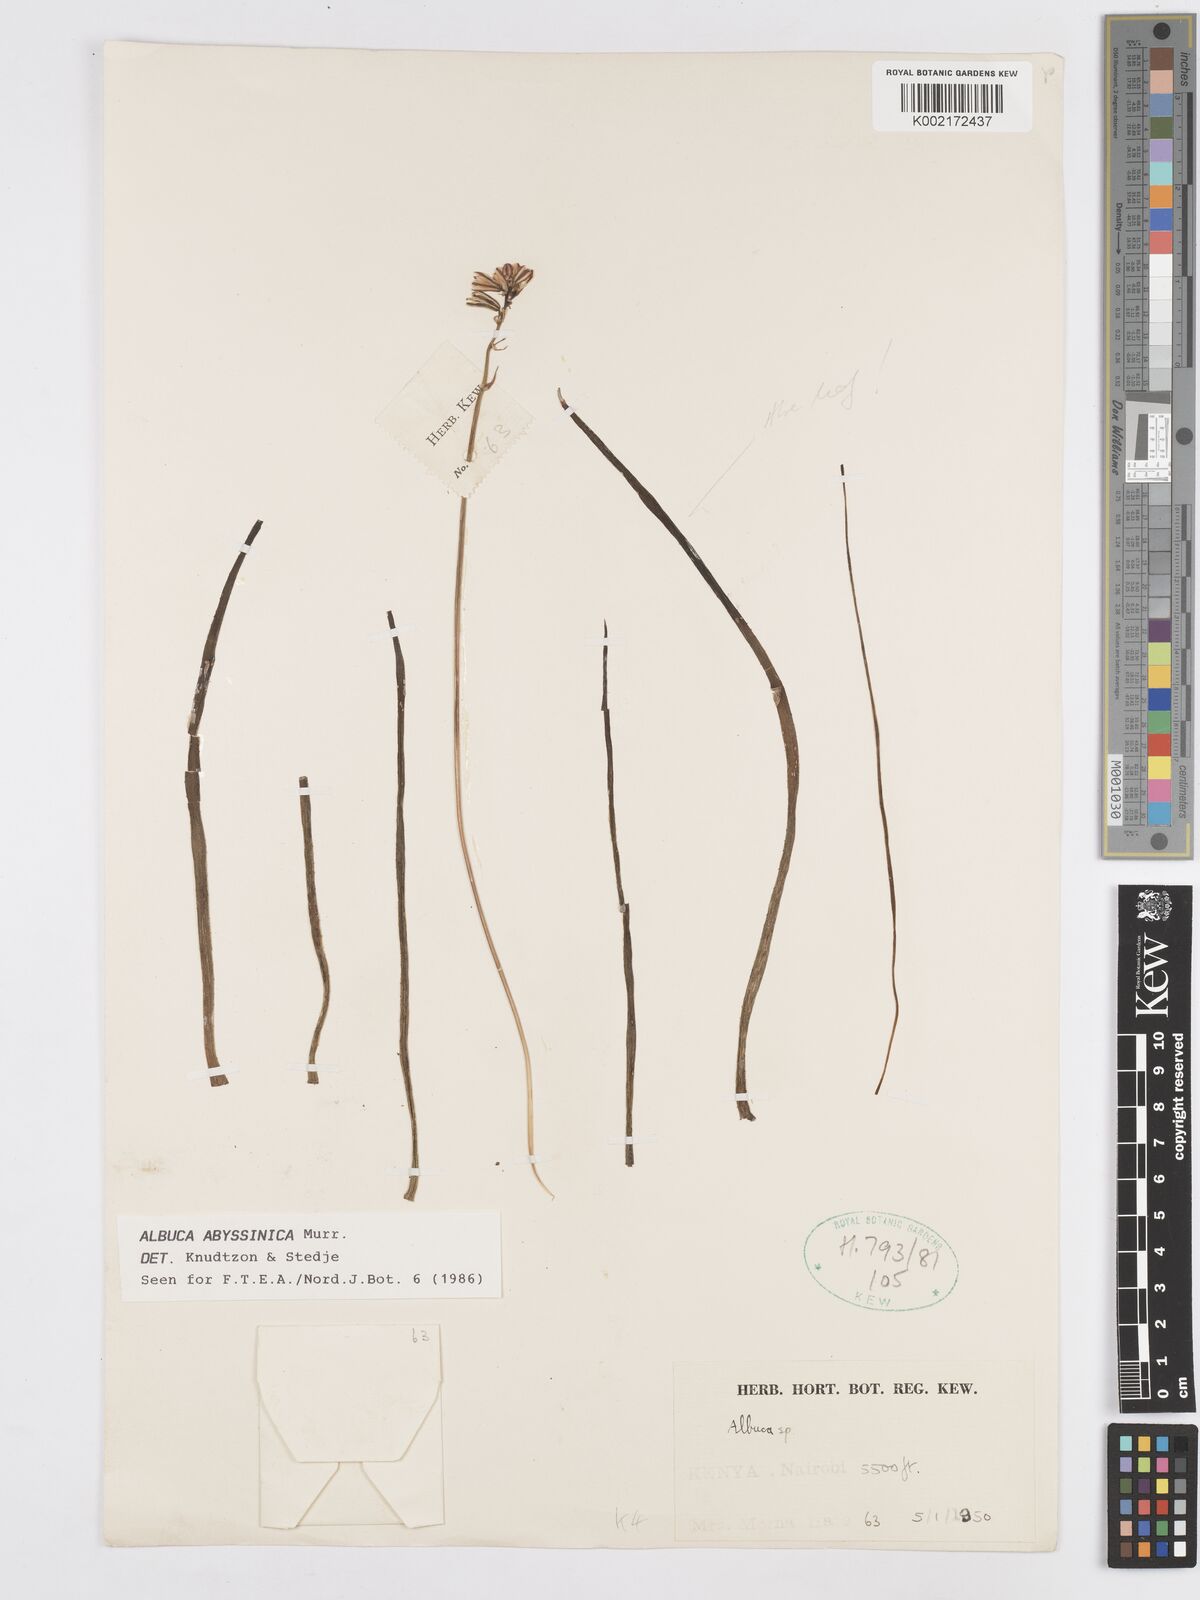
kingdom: Plantae
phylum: Tracheophyta
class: Liliopsida
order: Asparagales
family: Asparagaceae
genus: Albuca
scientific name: Albuca abyssinica
